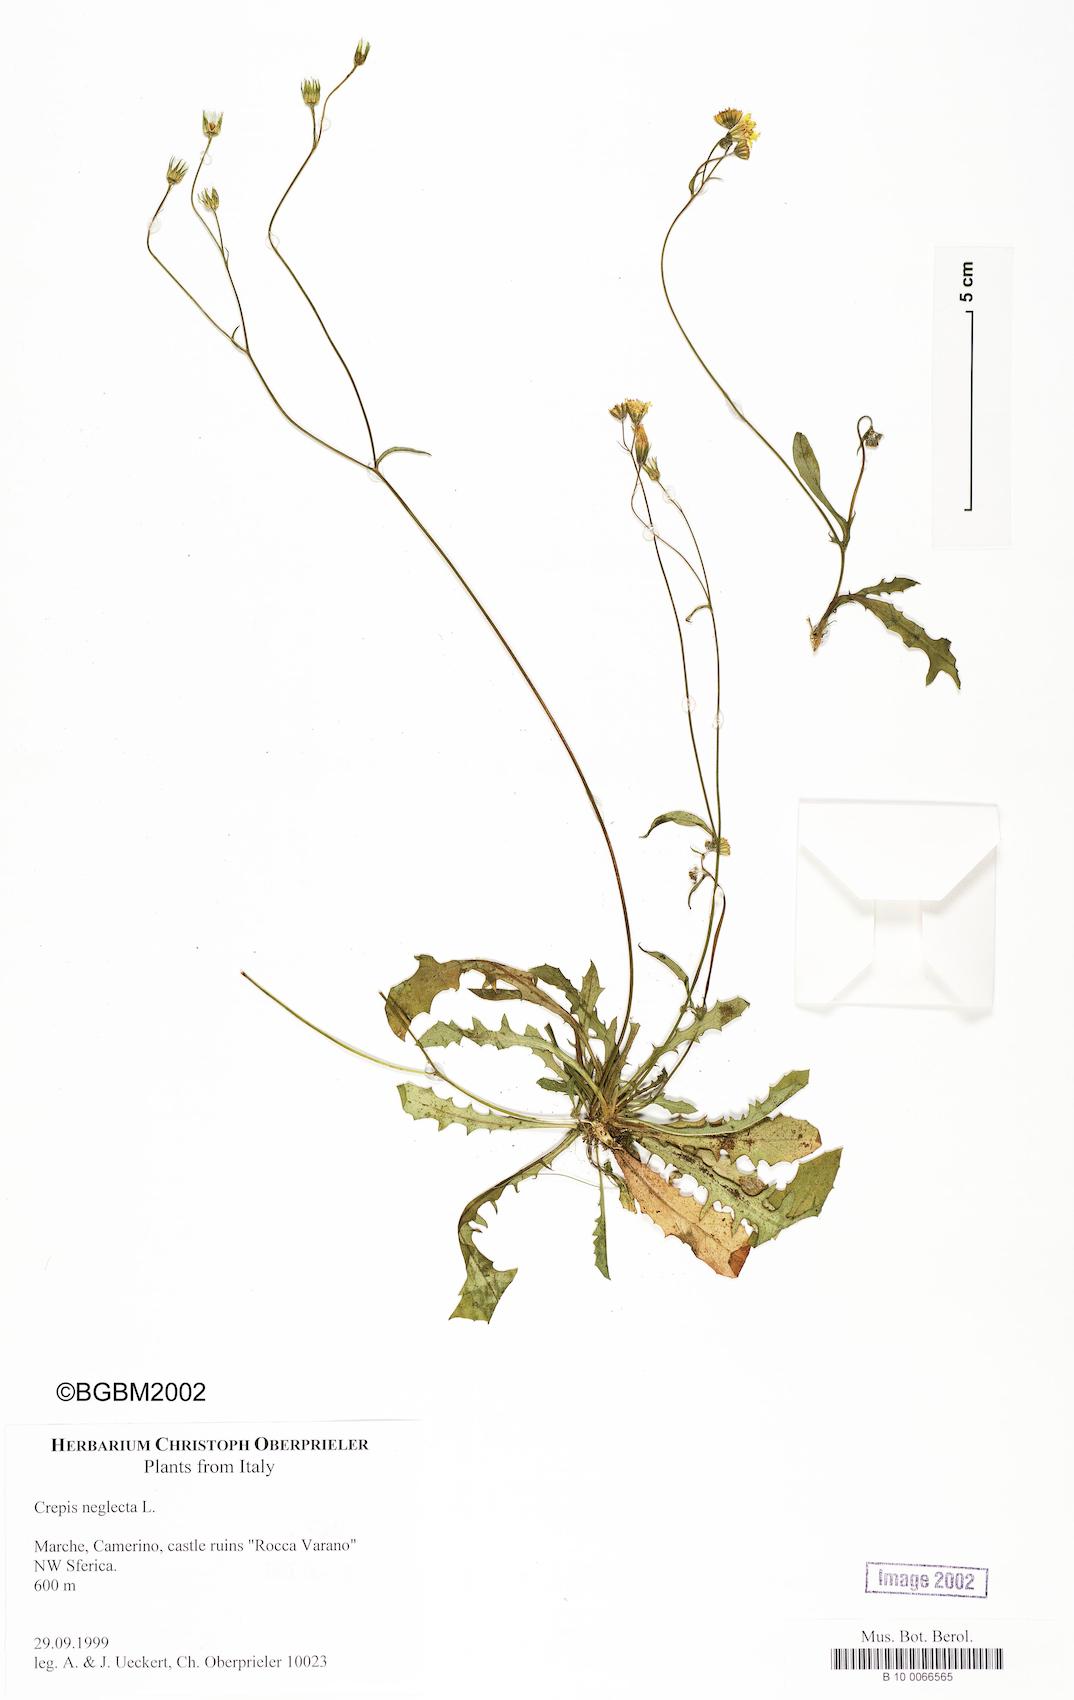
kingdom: Plantae
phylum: Tracheophyta
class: Magnoliopsida
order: Asterales
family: Asteraceae
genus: Crepis
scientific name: Crepis neglecta
